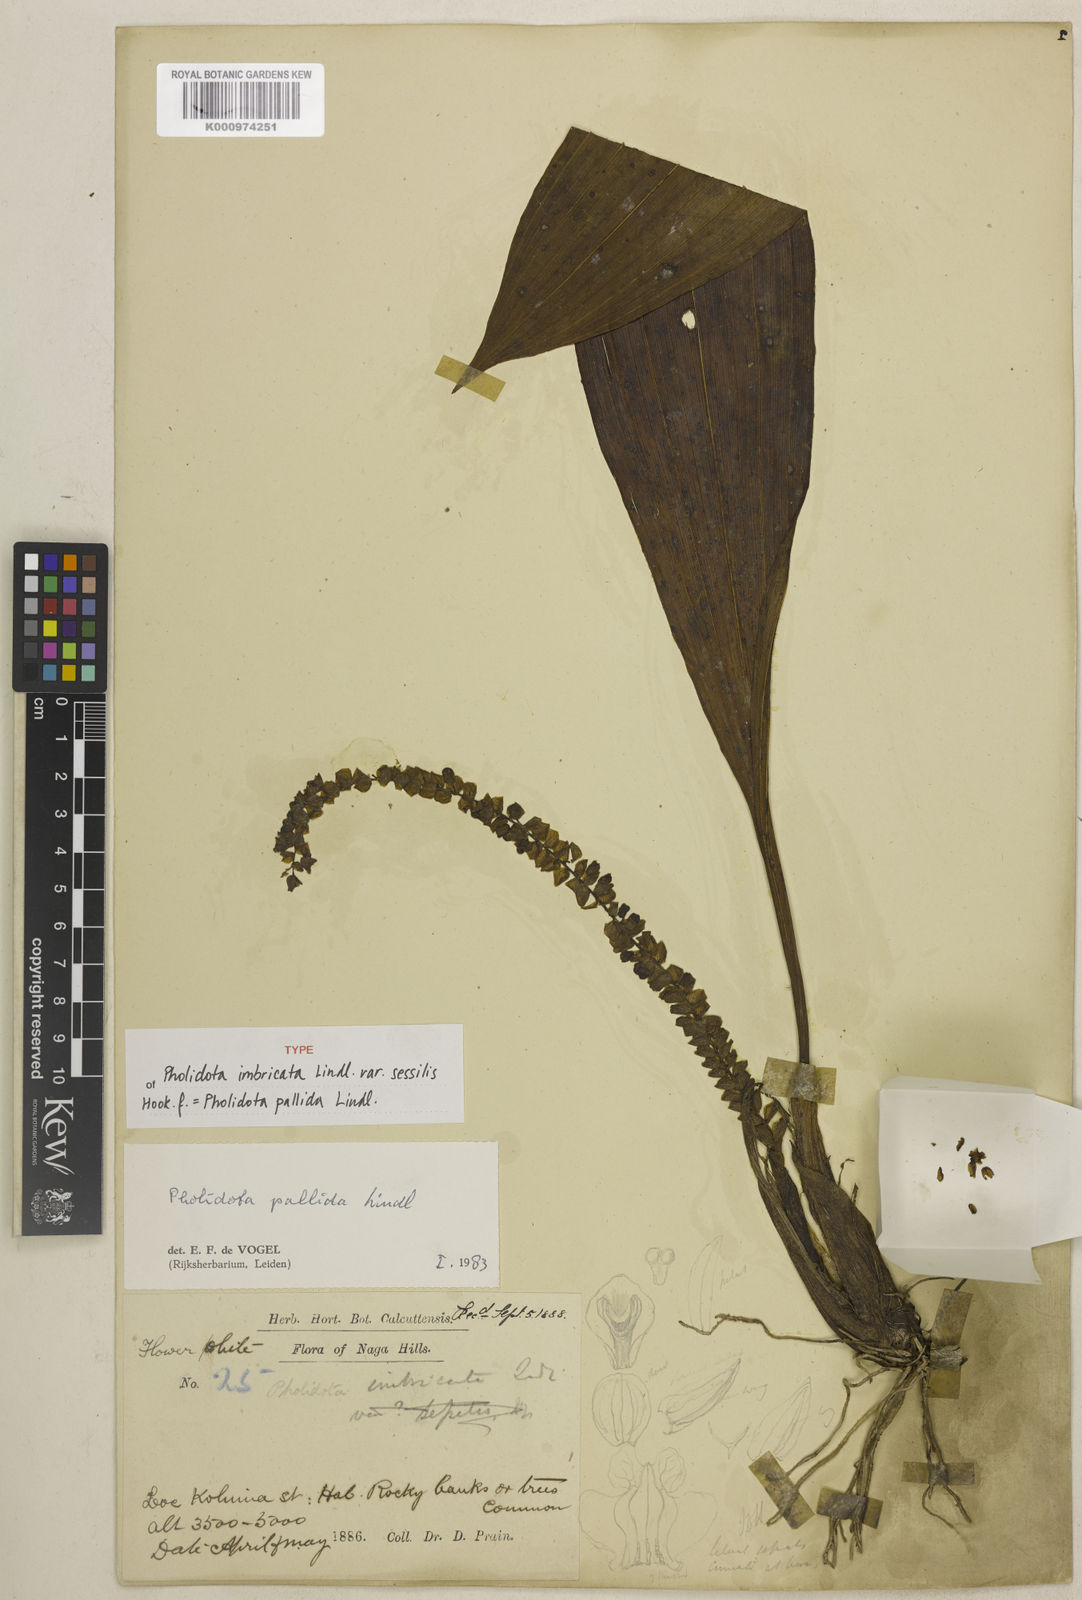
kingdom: Plantae
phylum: Tracheophyta
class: Liliopsida
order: Asparagales
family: Orchidaceae
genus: Coelogyne
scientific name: Coelogyne pallida
